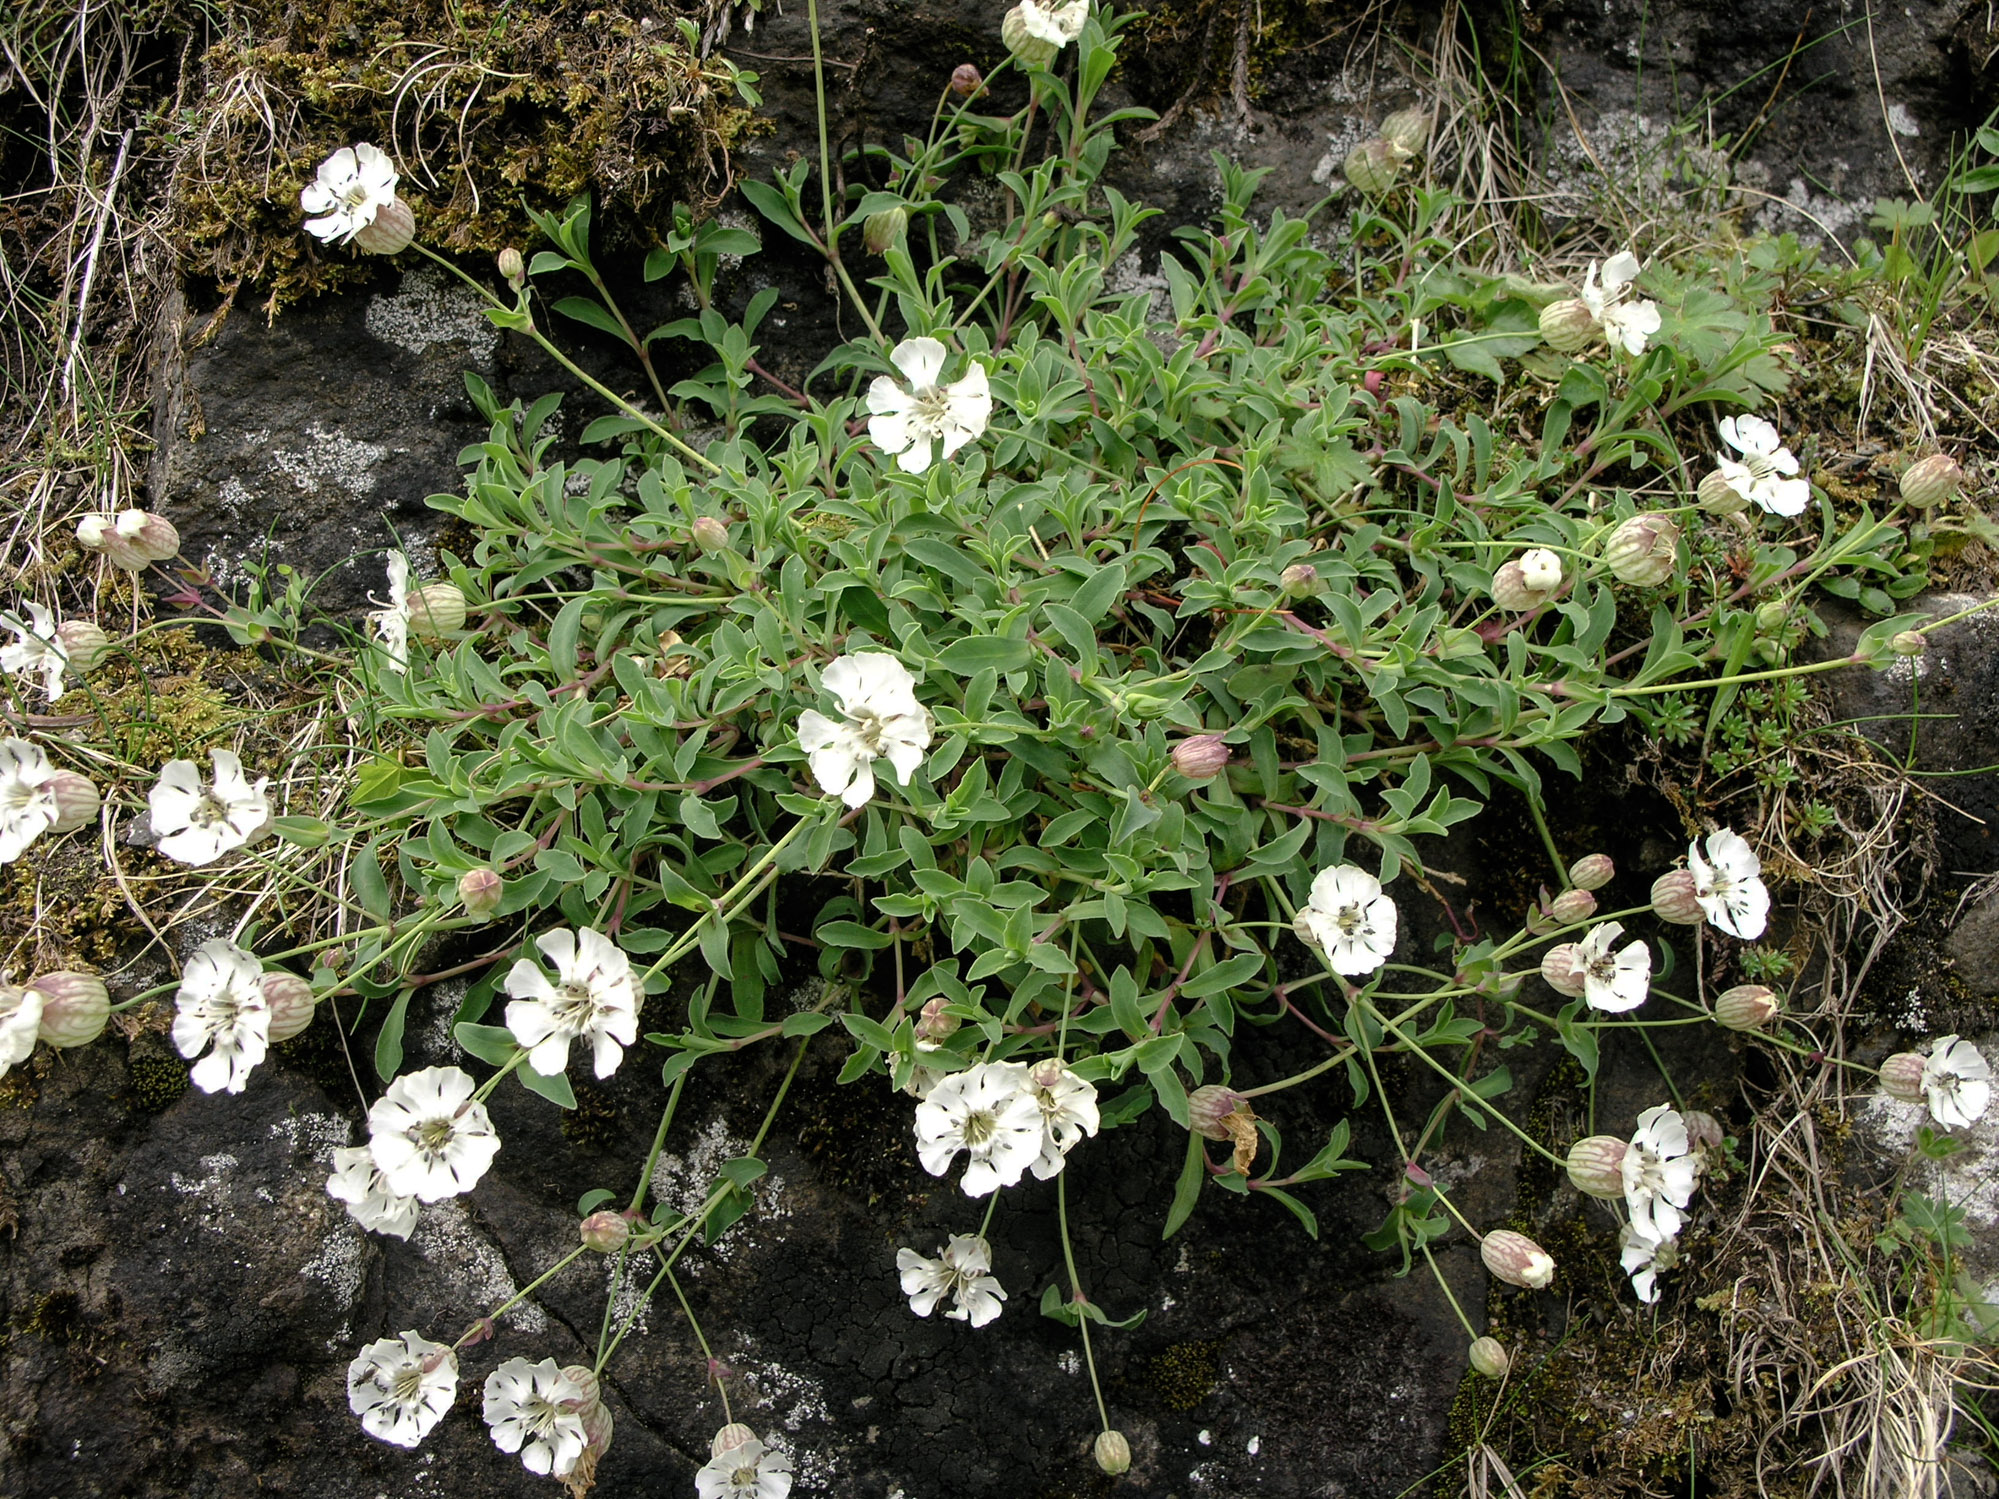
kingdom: Plantae
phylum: Tracheophyta
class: Magnoliopsida
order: Caryophyllales
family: Caryophyllaceae
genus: Silene
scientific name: Silene uniflora
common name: Sea campion
